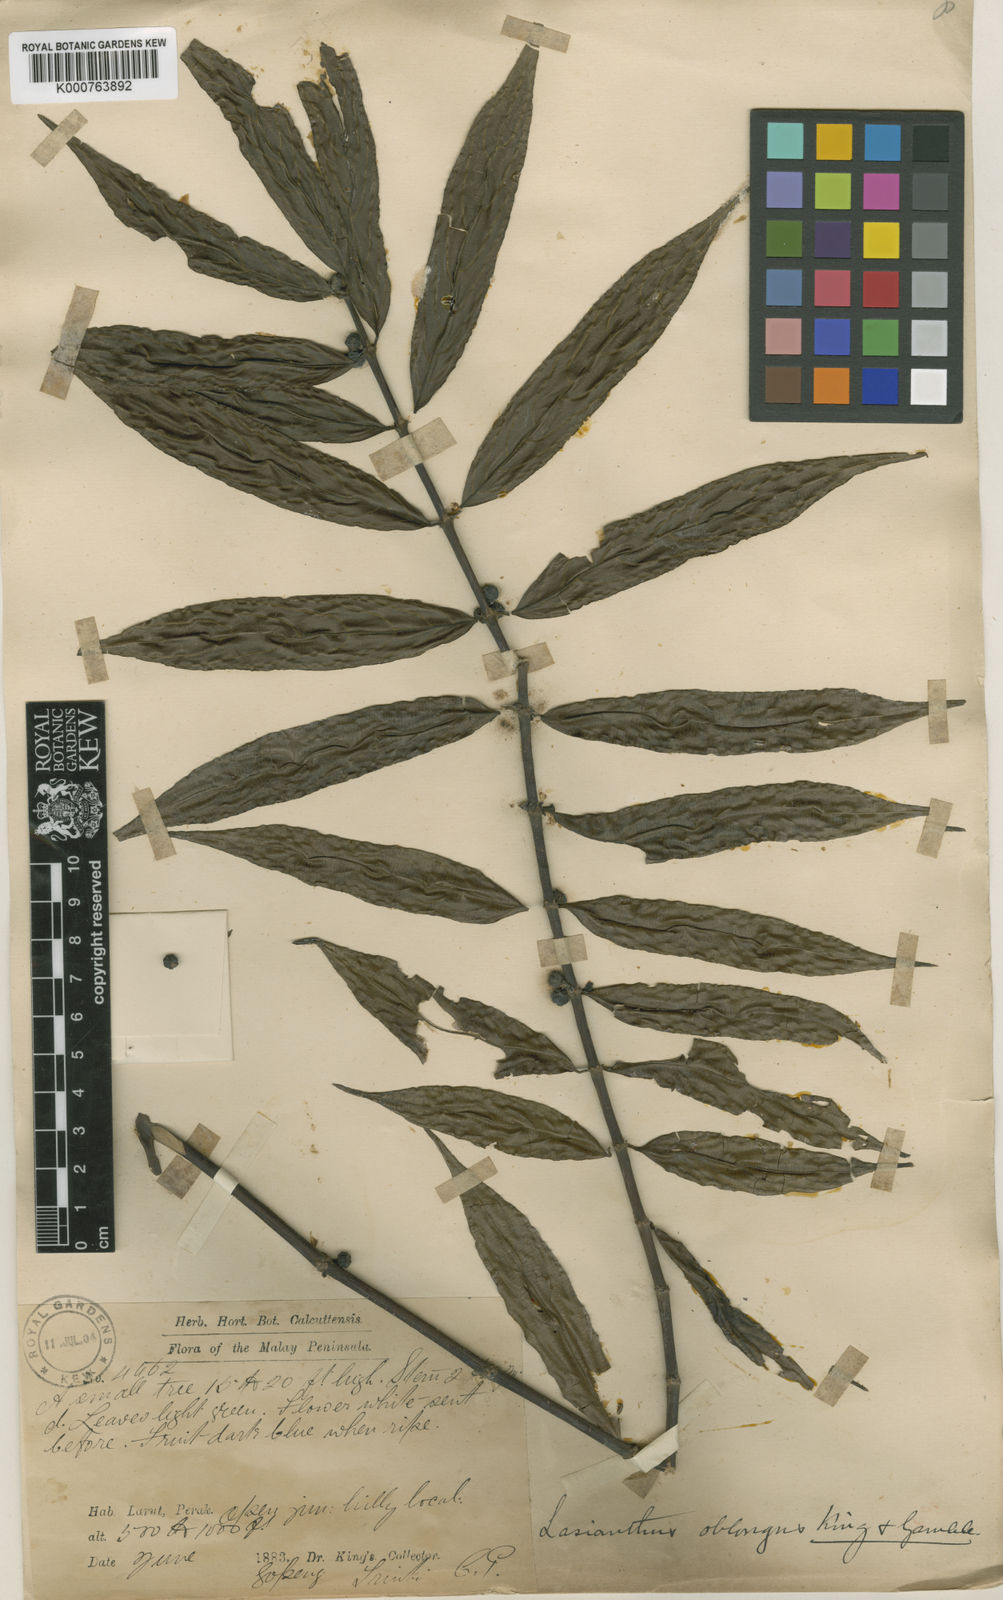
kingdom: Plantae
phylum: Tracheophyta
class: Magnoliopsida
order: Gentianales
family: Rubiaceae
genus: Lasianthus
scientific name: Lasianthus oblongus
